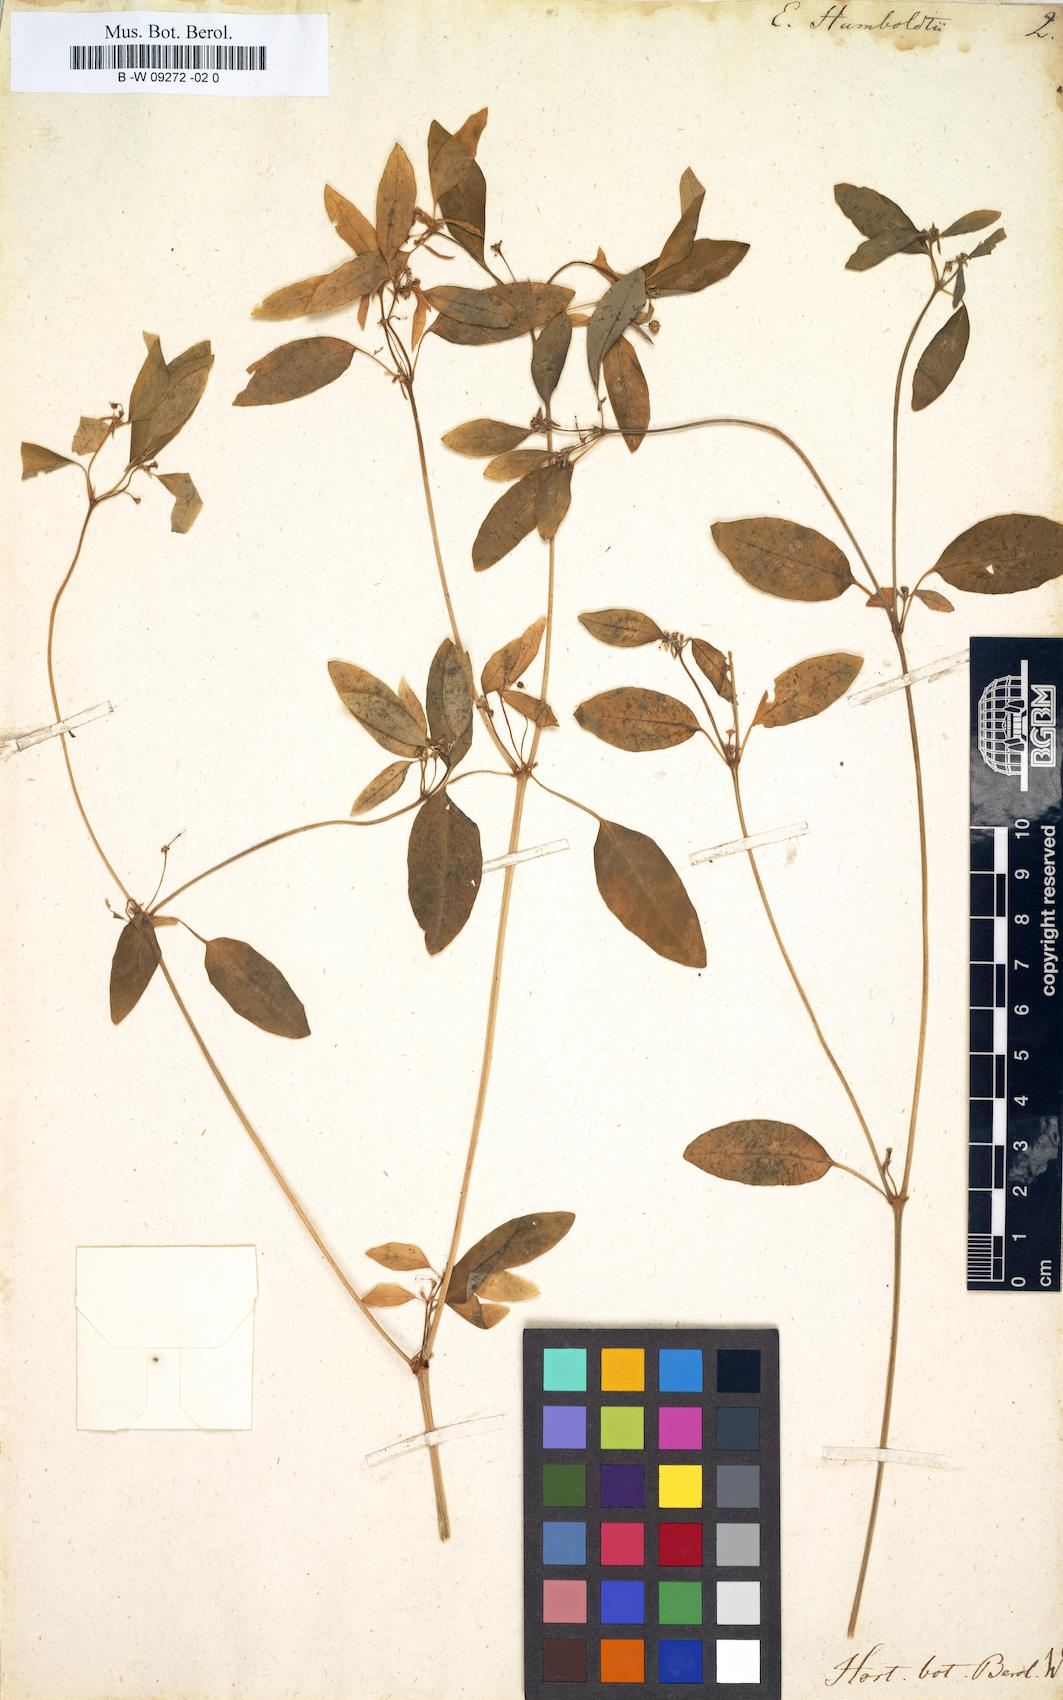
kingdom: Plantae
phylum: Tracheophyta
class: Magnoliopsida
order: Malpighiales
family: Euphorbiaceae
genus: Euphorbia
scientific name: Euphorbia graminea
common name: Grassleaf spurge
